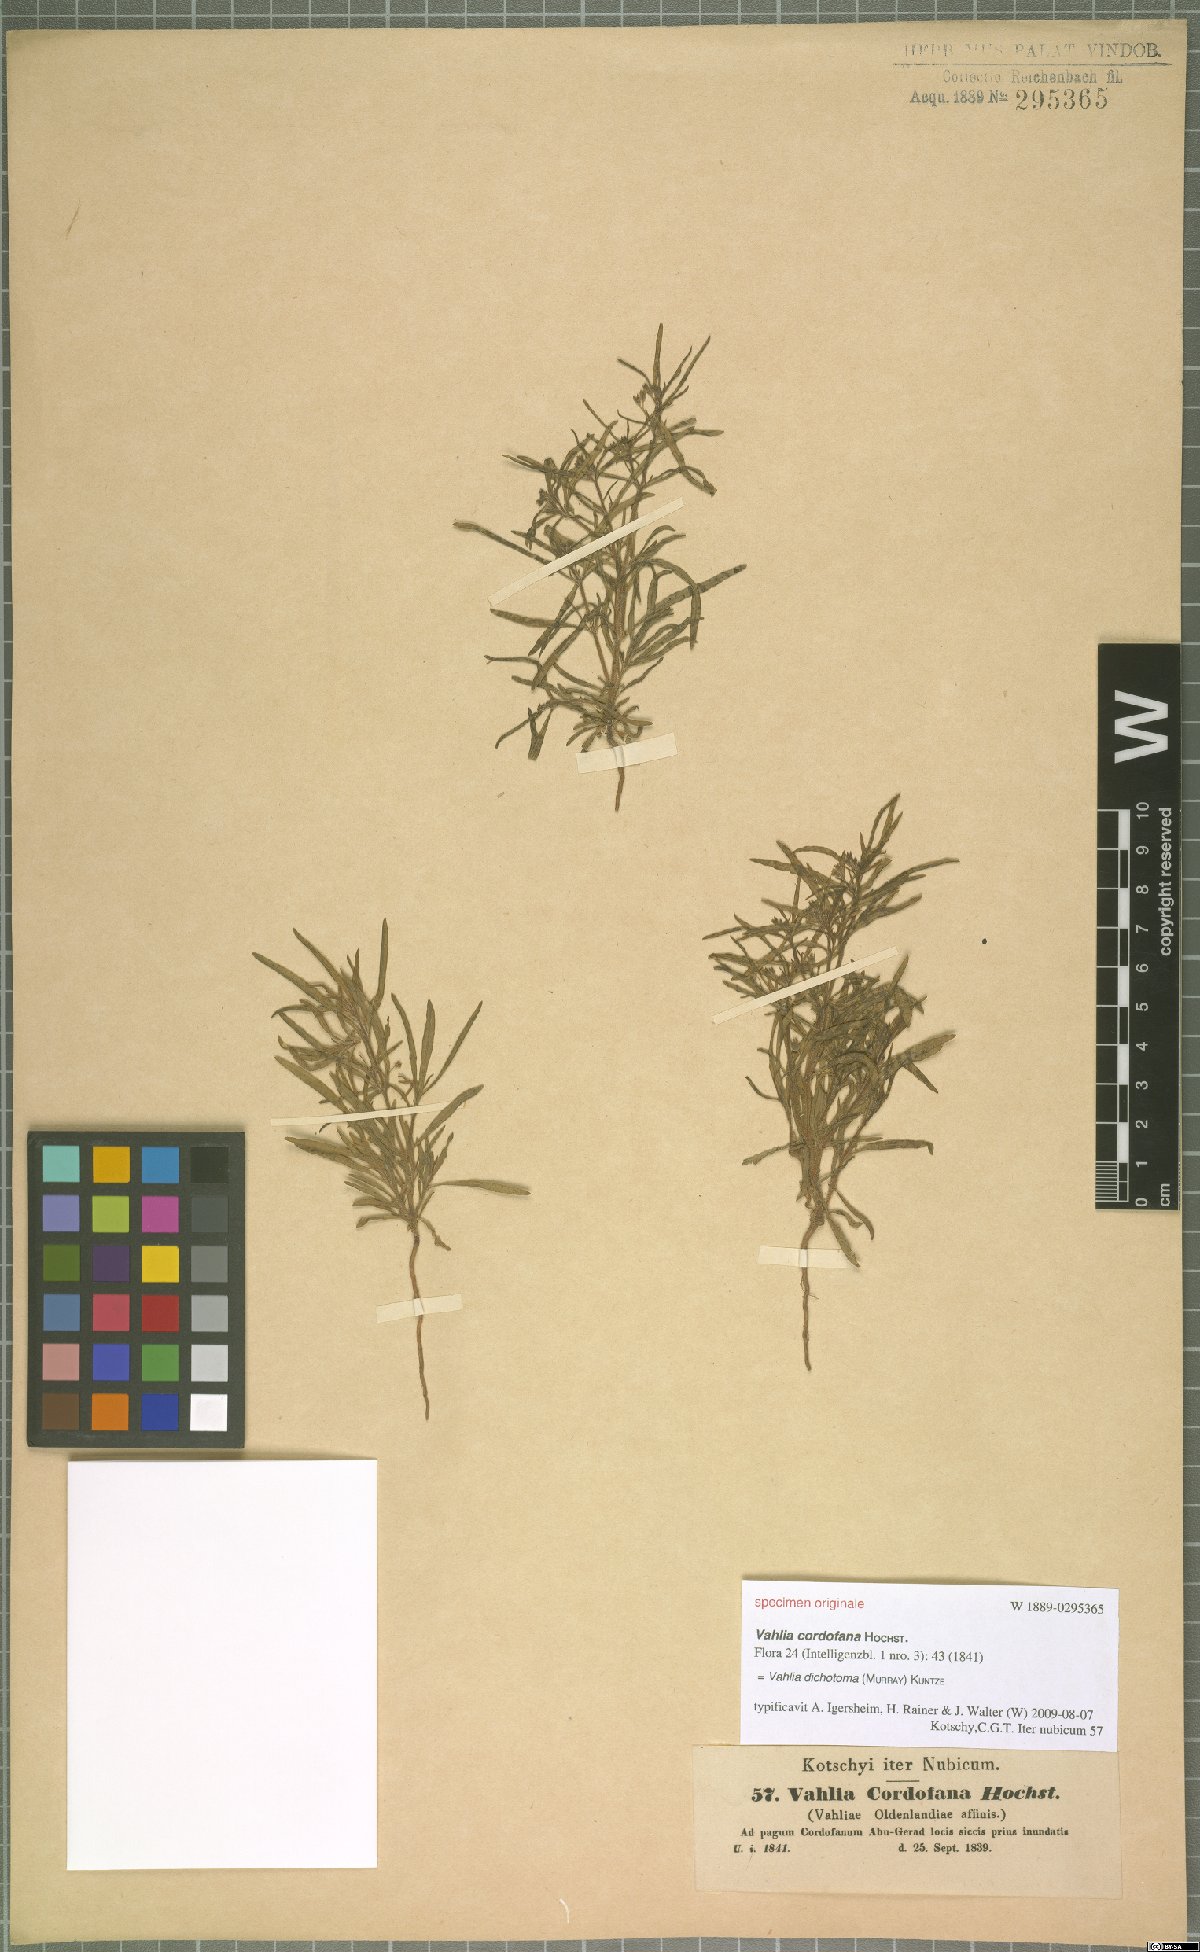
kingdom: Plantae
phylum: Tracheophyta
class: Magnoliopsida
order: Vahliales
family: Vahliaceae
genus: Vahlia
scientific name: Vahlia dichotoma
